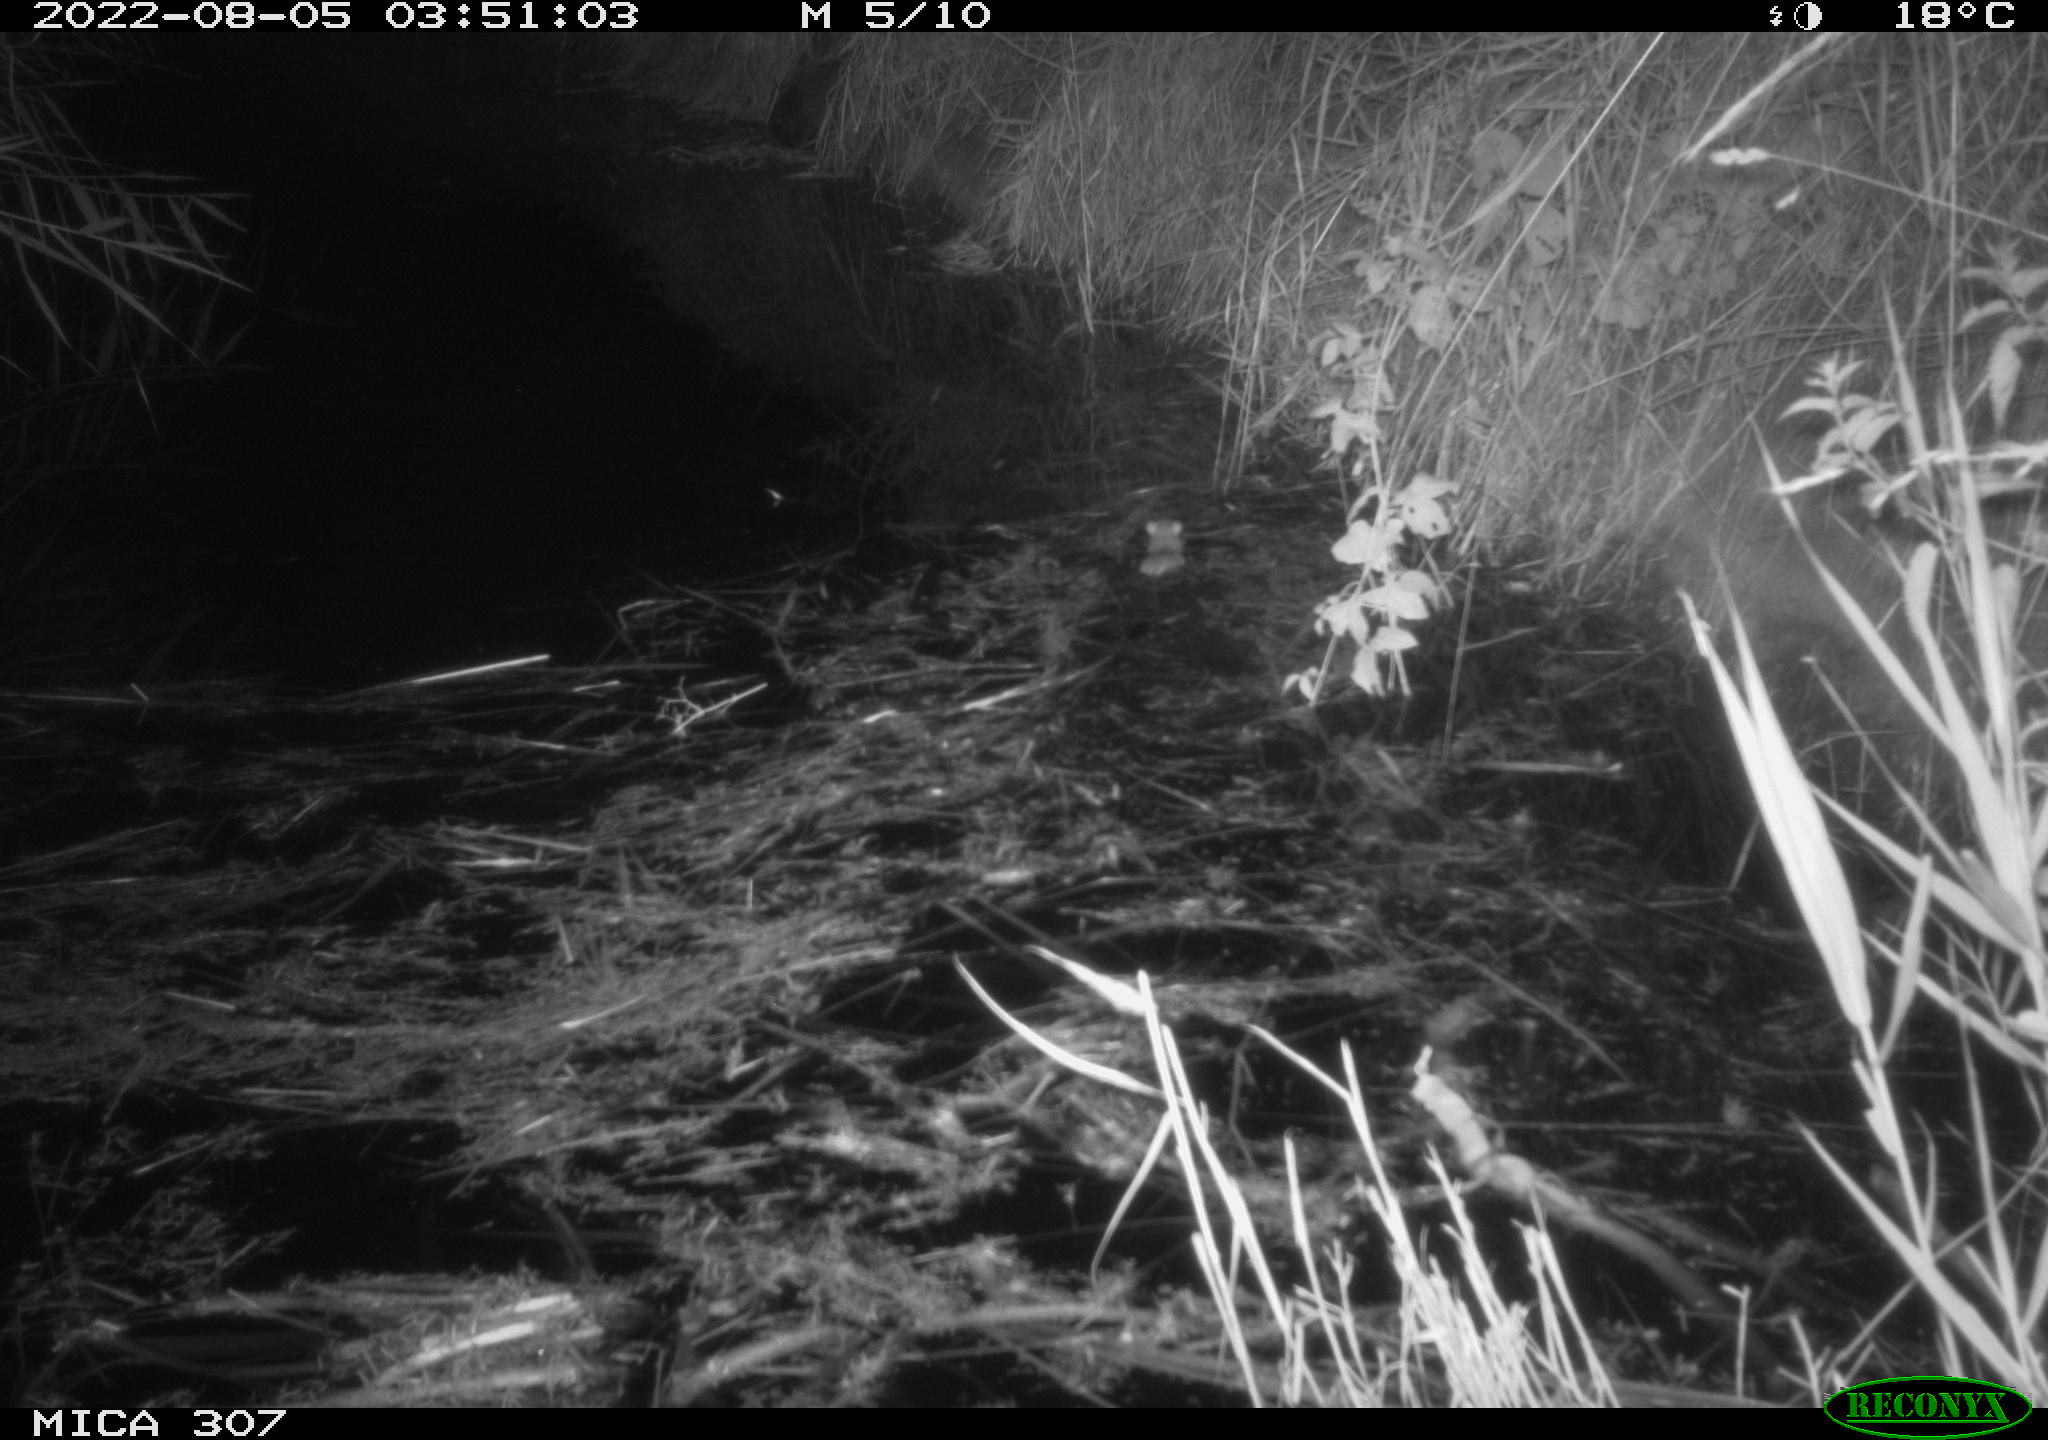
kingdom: Animalia
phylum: Chordata
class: Mammalia
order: Rodentia
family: Muridae
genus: Rattus
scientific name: Rattus norvegicus
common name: Brown rat
